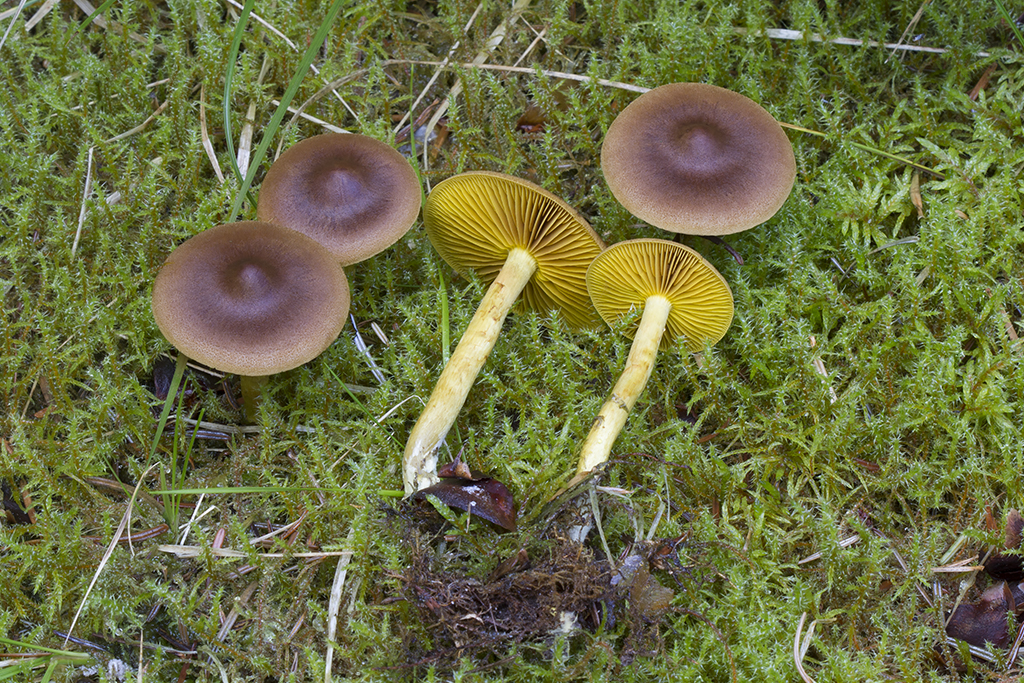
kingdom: Fungi
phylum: Basidiomycota
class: Agaricomycetes
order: Agaricales
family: Cortinariaceae
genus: Cortinarius
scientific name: Cortinarius
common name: gulbladet slørhat
